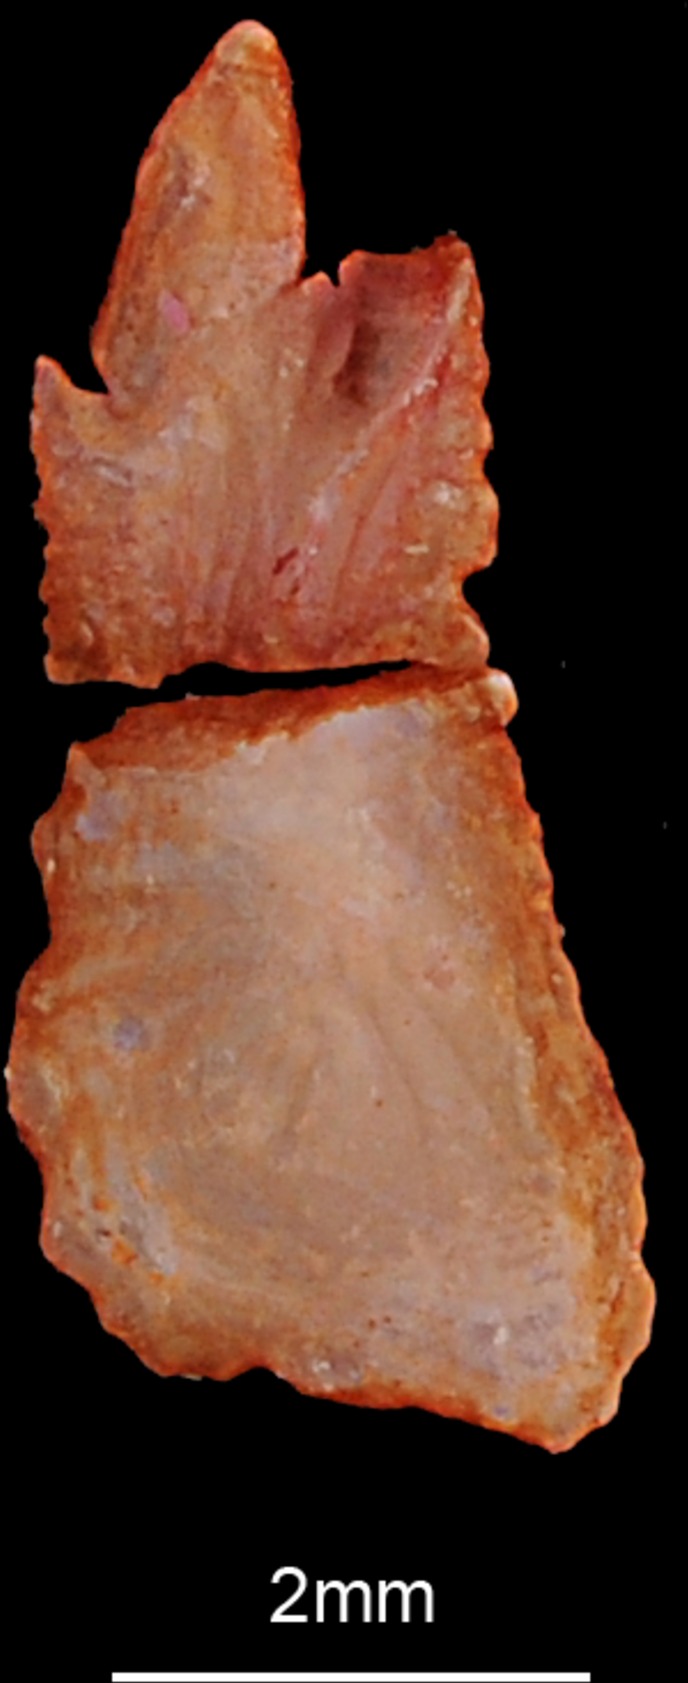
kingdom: Animalia
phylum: Chordata
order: Perciformes
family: Scombridae
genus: Rastrelliger
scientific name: Rastrelliger kanagurta
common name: Indian mackerel
